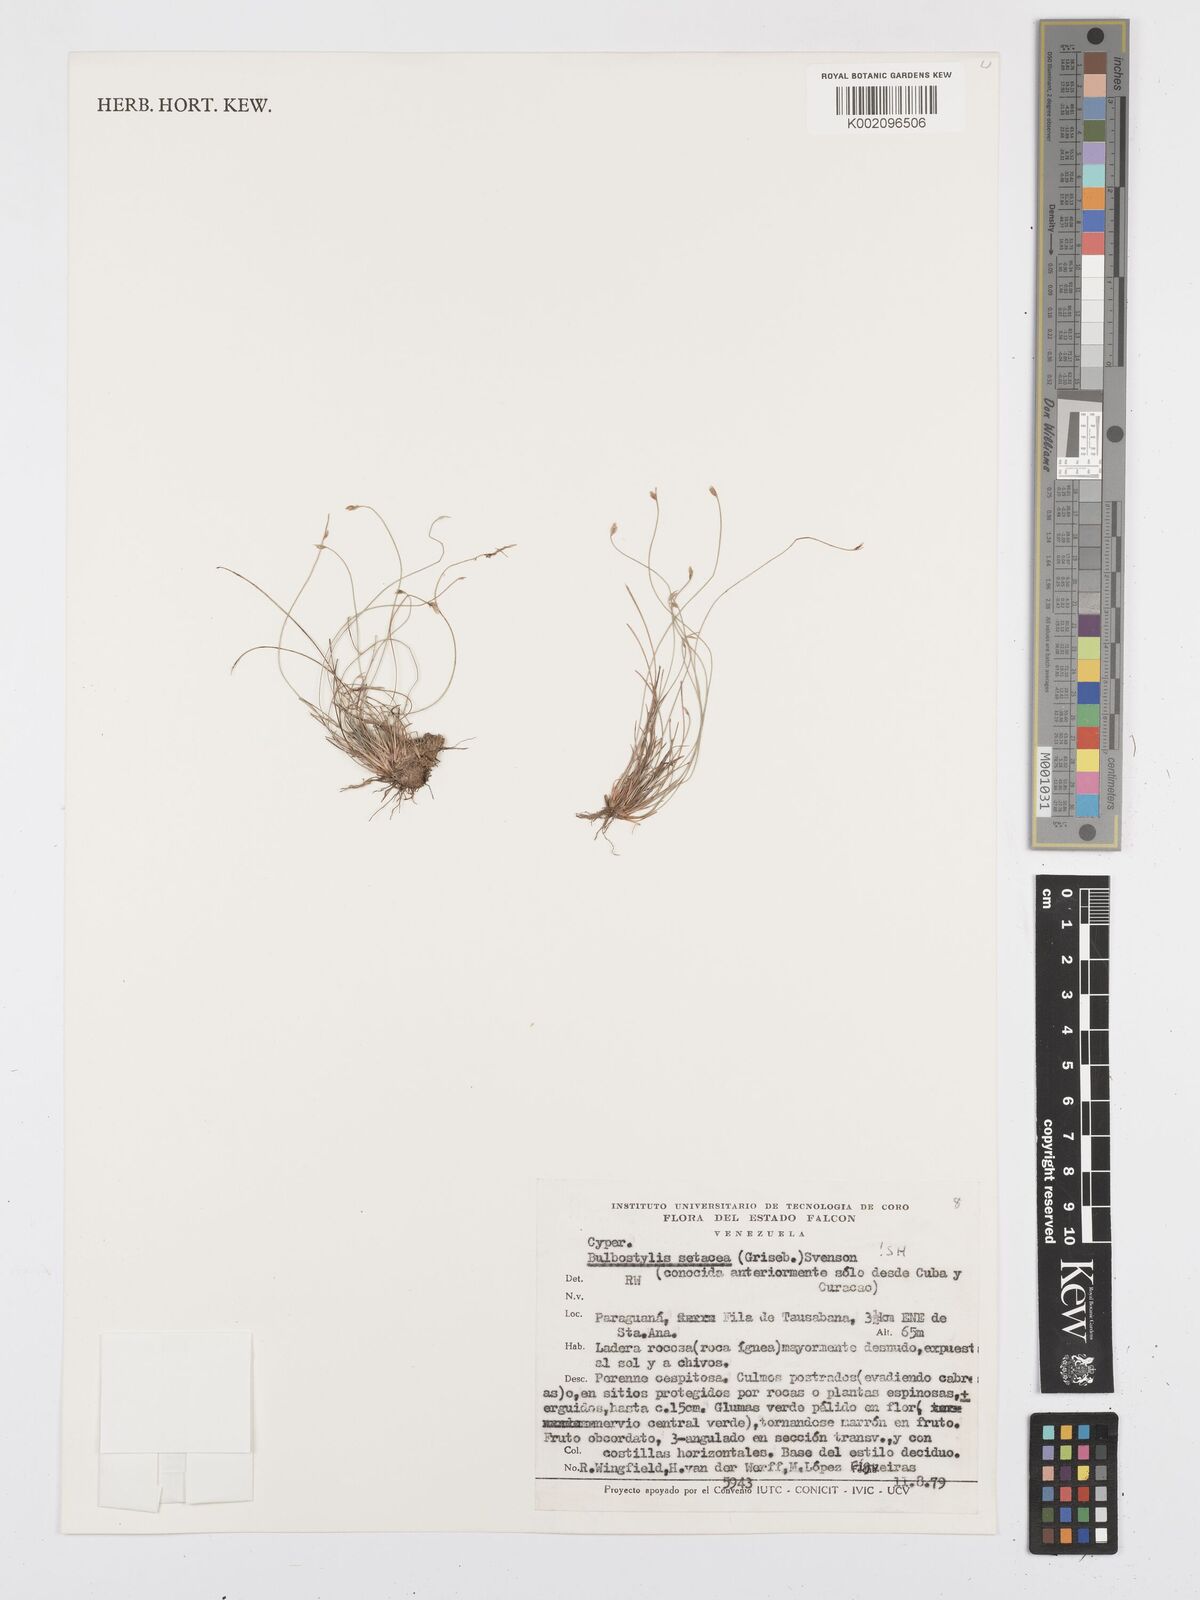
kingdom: Plantae
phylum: Tracheophyta
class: Liliopsida
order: Poales
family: Cyperaceae
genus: Bulbostylis
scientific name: Bulbostylis setacea
